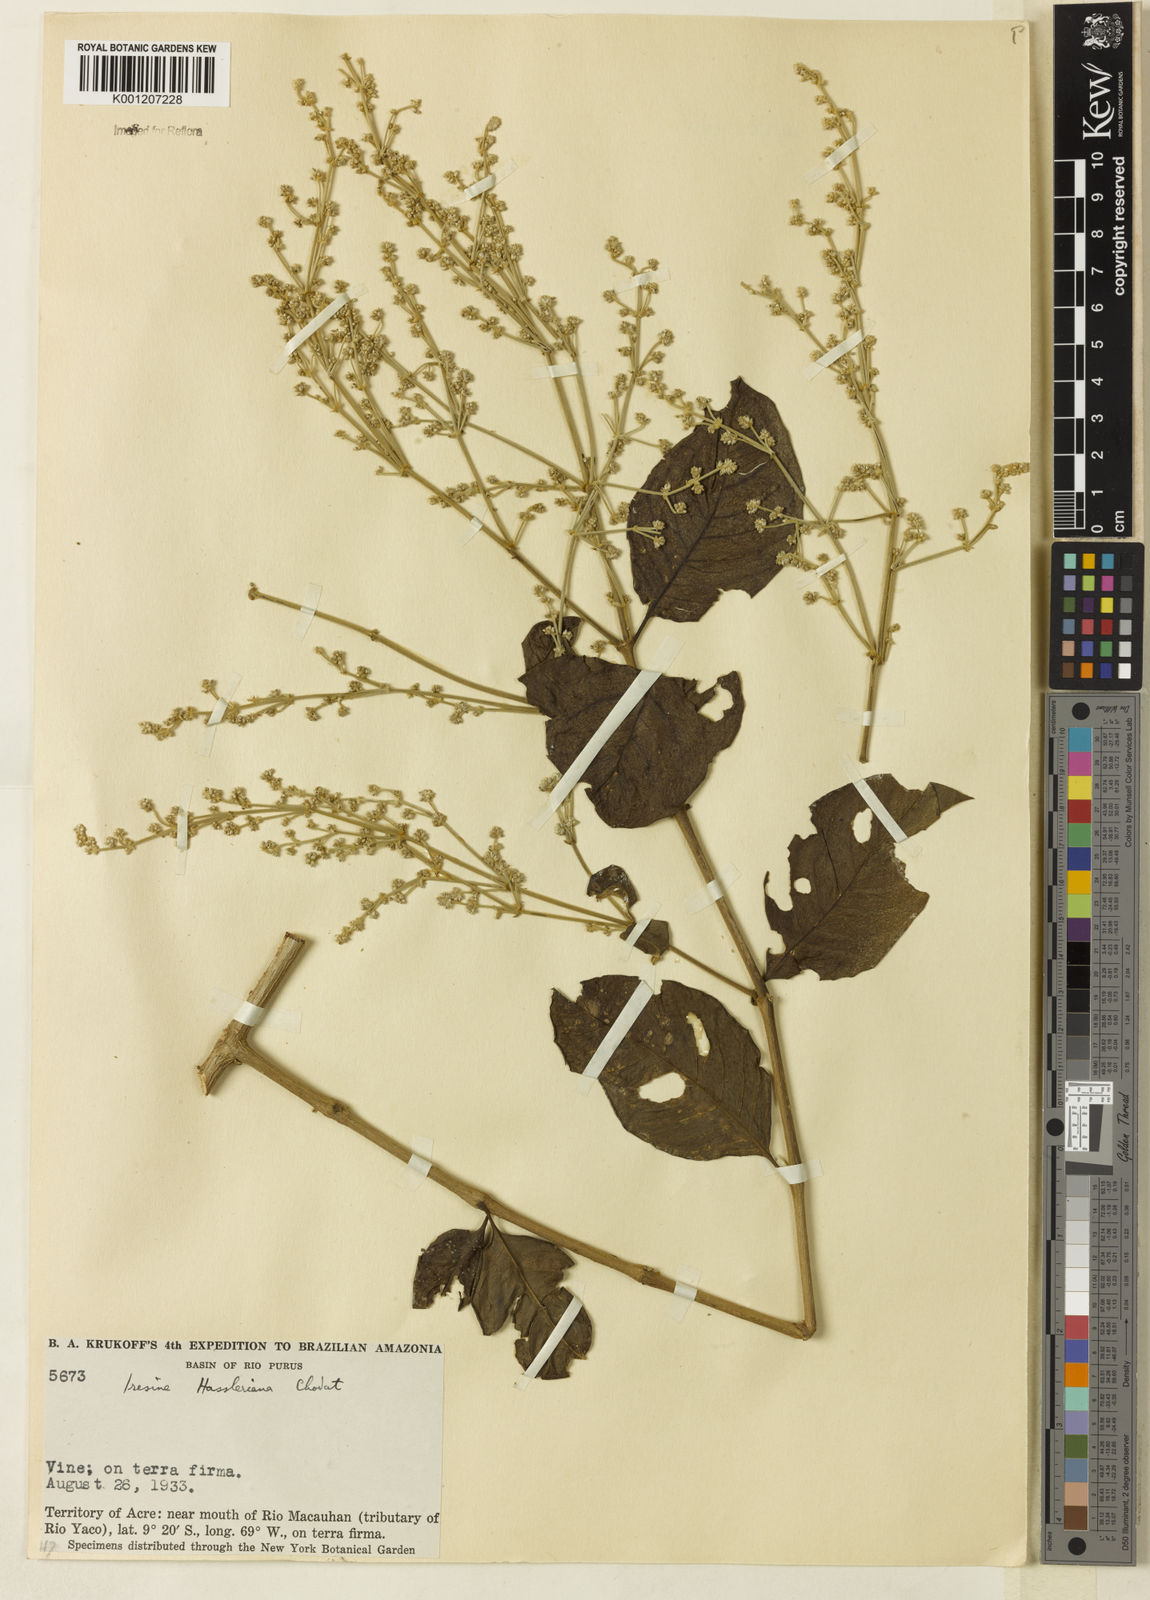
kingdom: Plantae
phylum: Tracheophyta
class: Magnoliopsida
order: Caryophyllales
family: Amaranthaceae
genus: Pedersenia
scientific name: Pedersenia hassleriana
